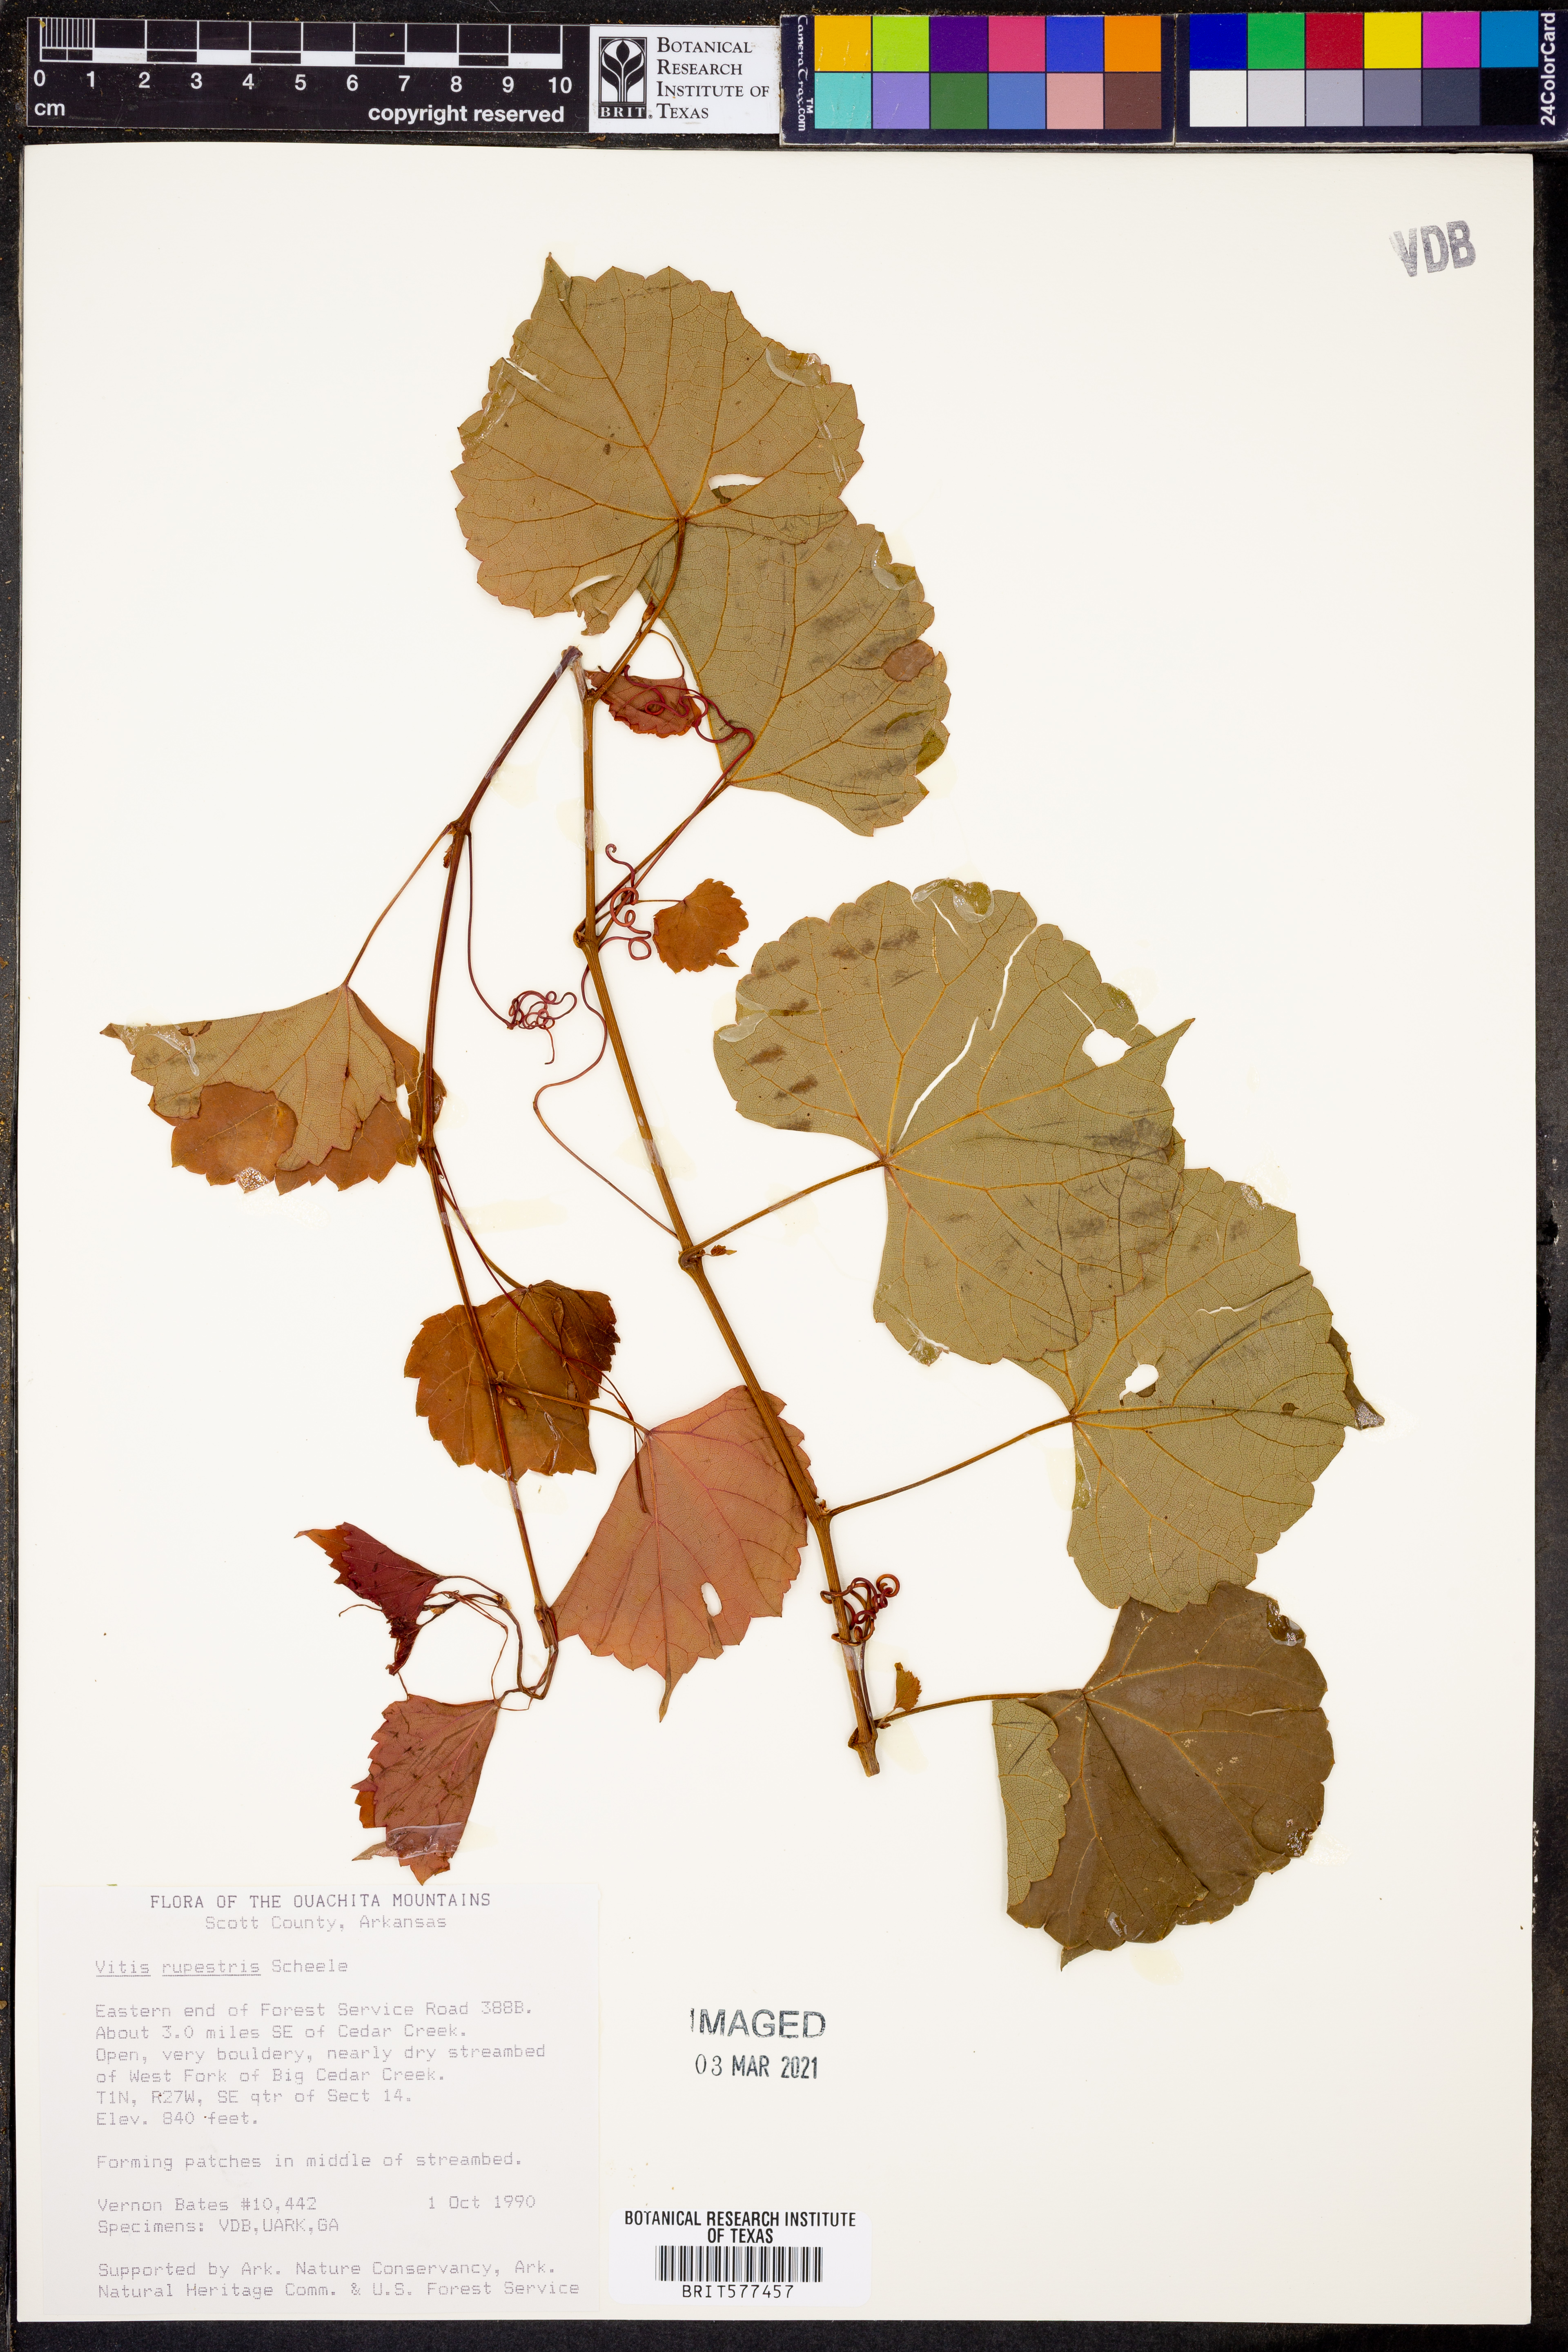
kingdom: Plantae
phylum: Tracheophyta
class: Magnoliopsida
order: Vitales
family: Vitaceae
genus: Vitis
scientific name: Vitis rupestris
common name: Rock grape
